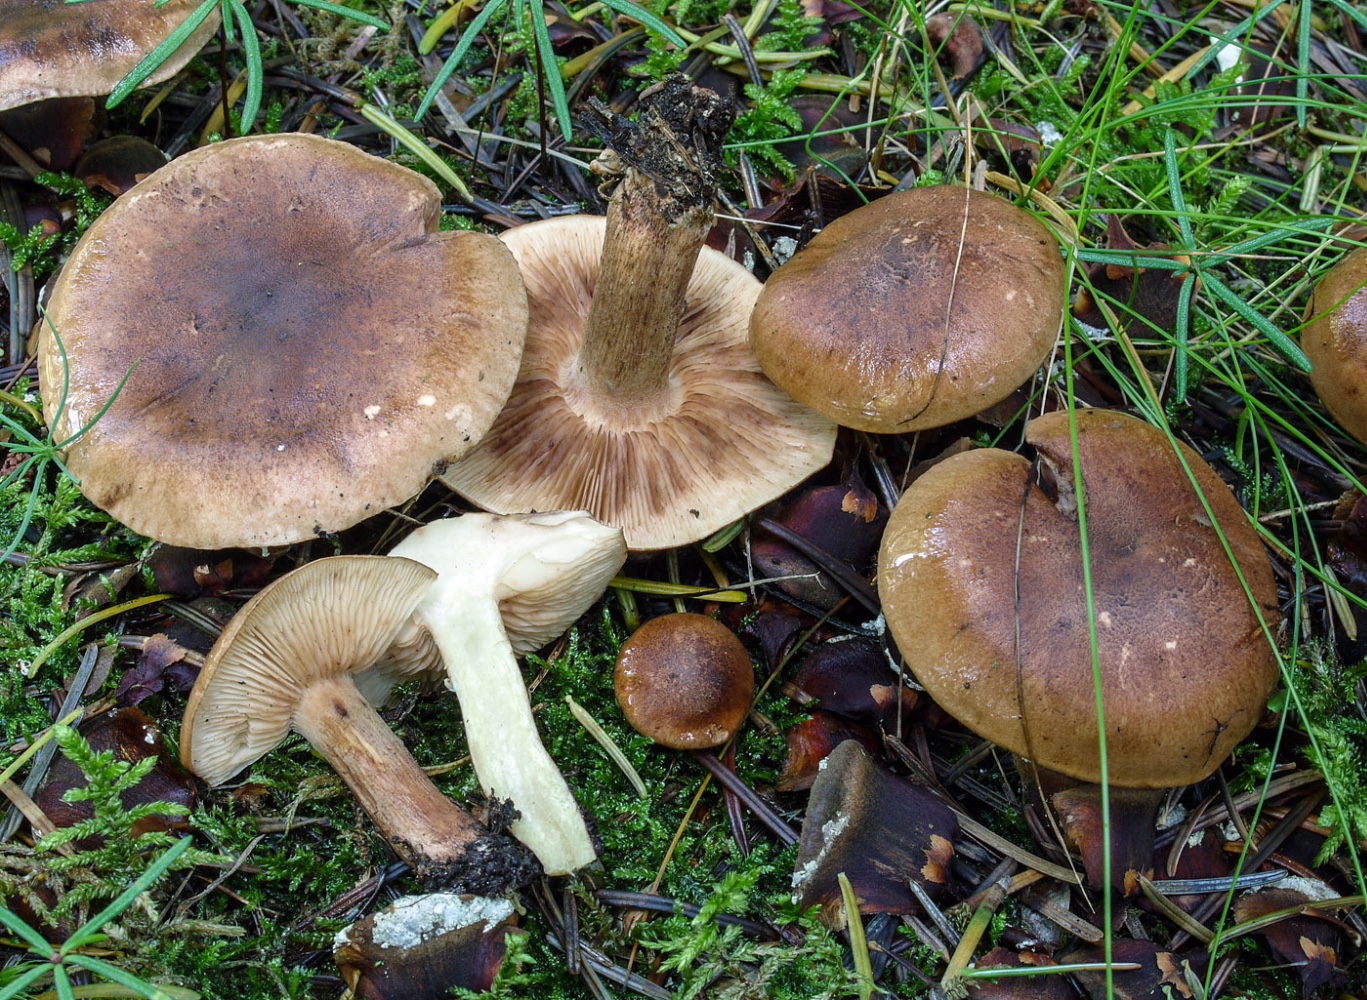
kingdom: Fungi
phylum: Basidiomycota
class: Agaricomycetes
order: Agaricales
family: Tricholomataceae
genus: Tricholoma
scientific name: Tricholoma fulvum
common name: birke-ridderhat
